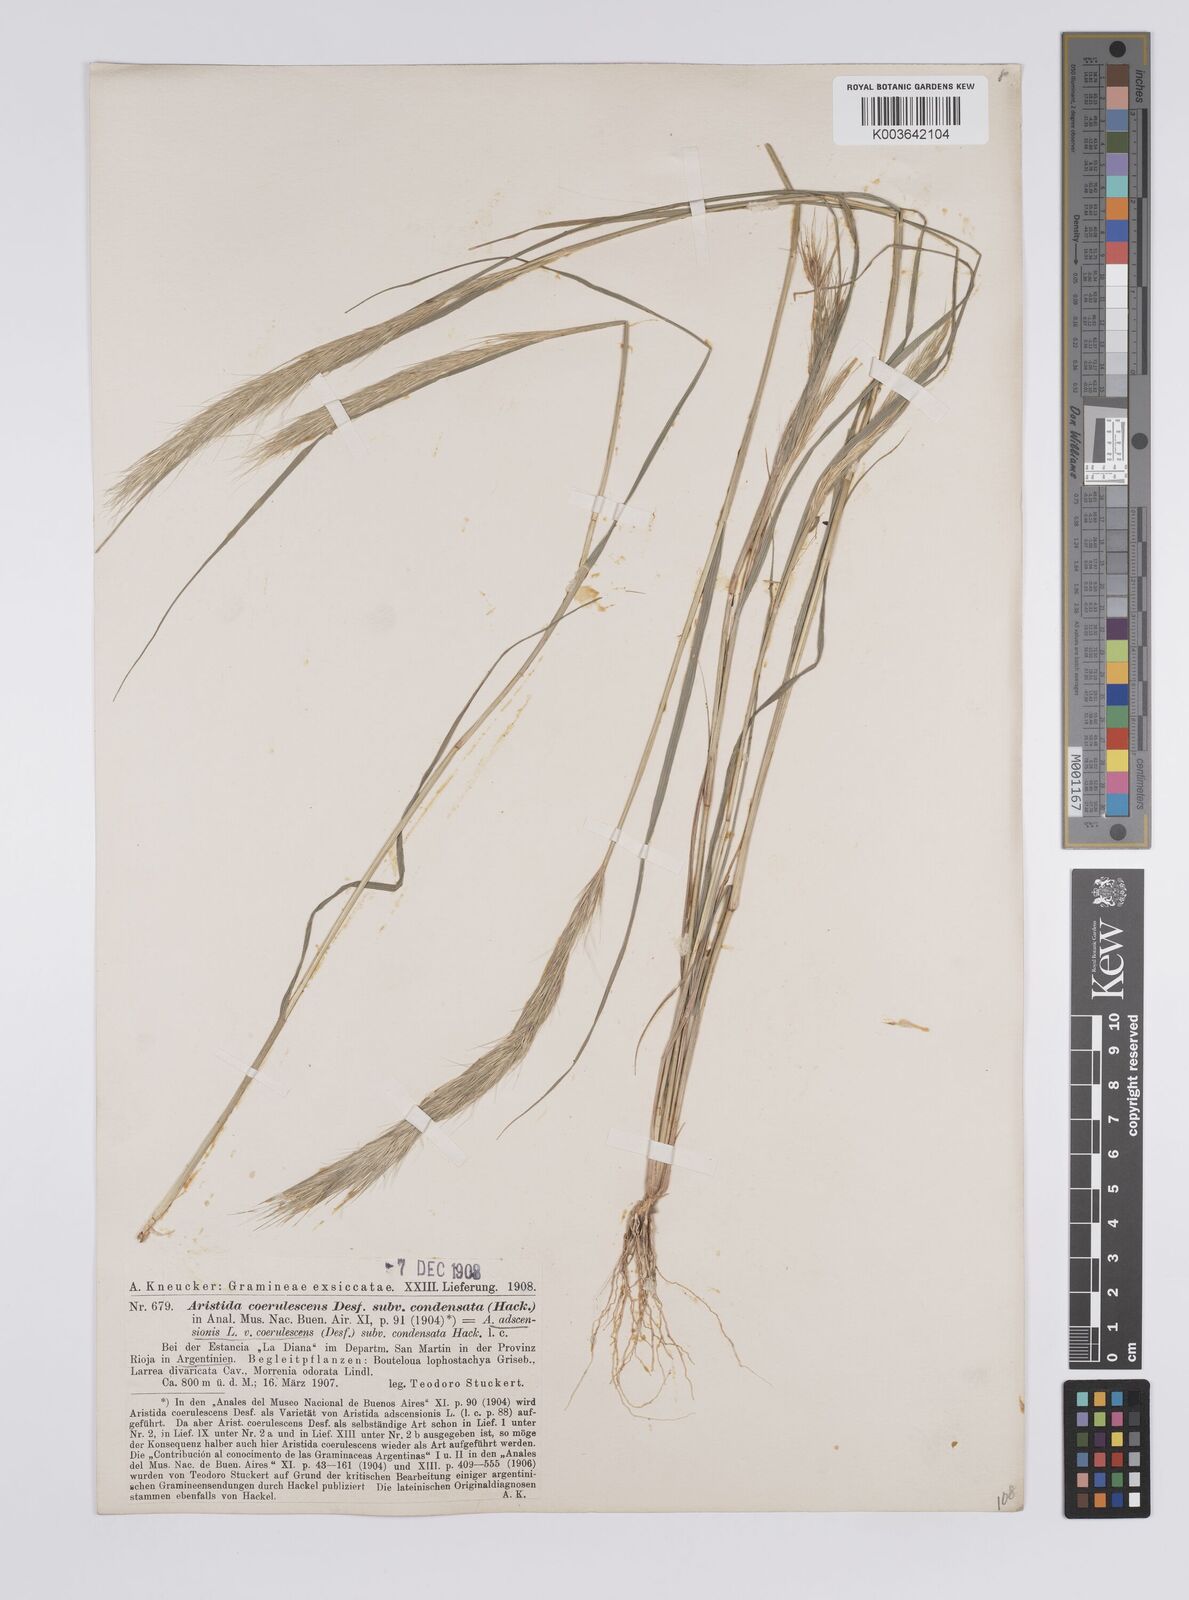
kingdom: Plantae
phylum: Tracheophyta
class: Liliopsida
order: Poales
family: Poaceae
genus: Aristida
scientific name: Aristida adscensionis
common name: Sixweeks threeawn
